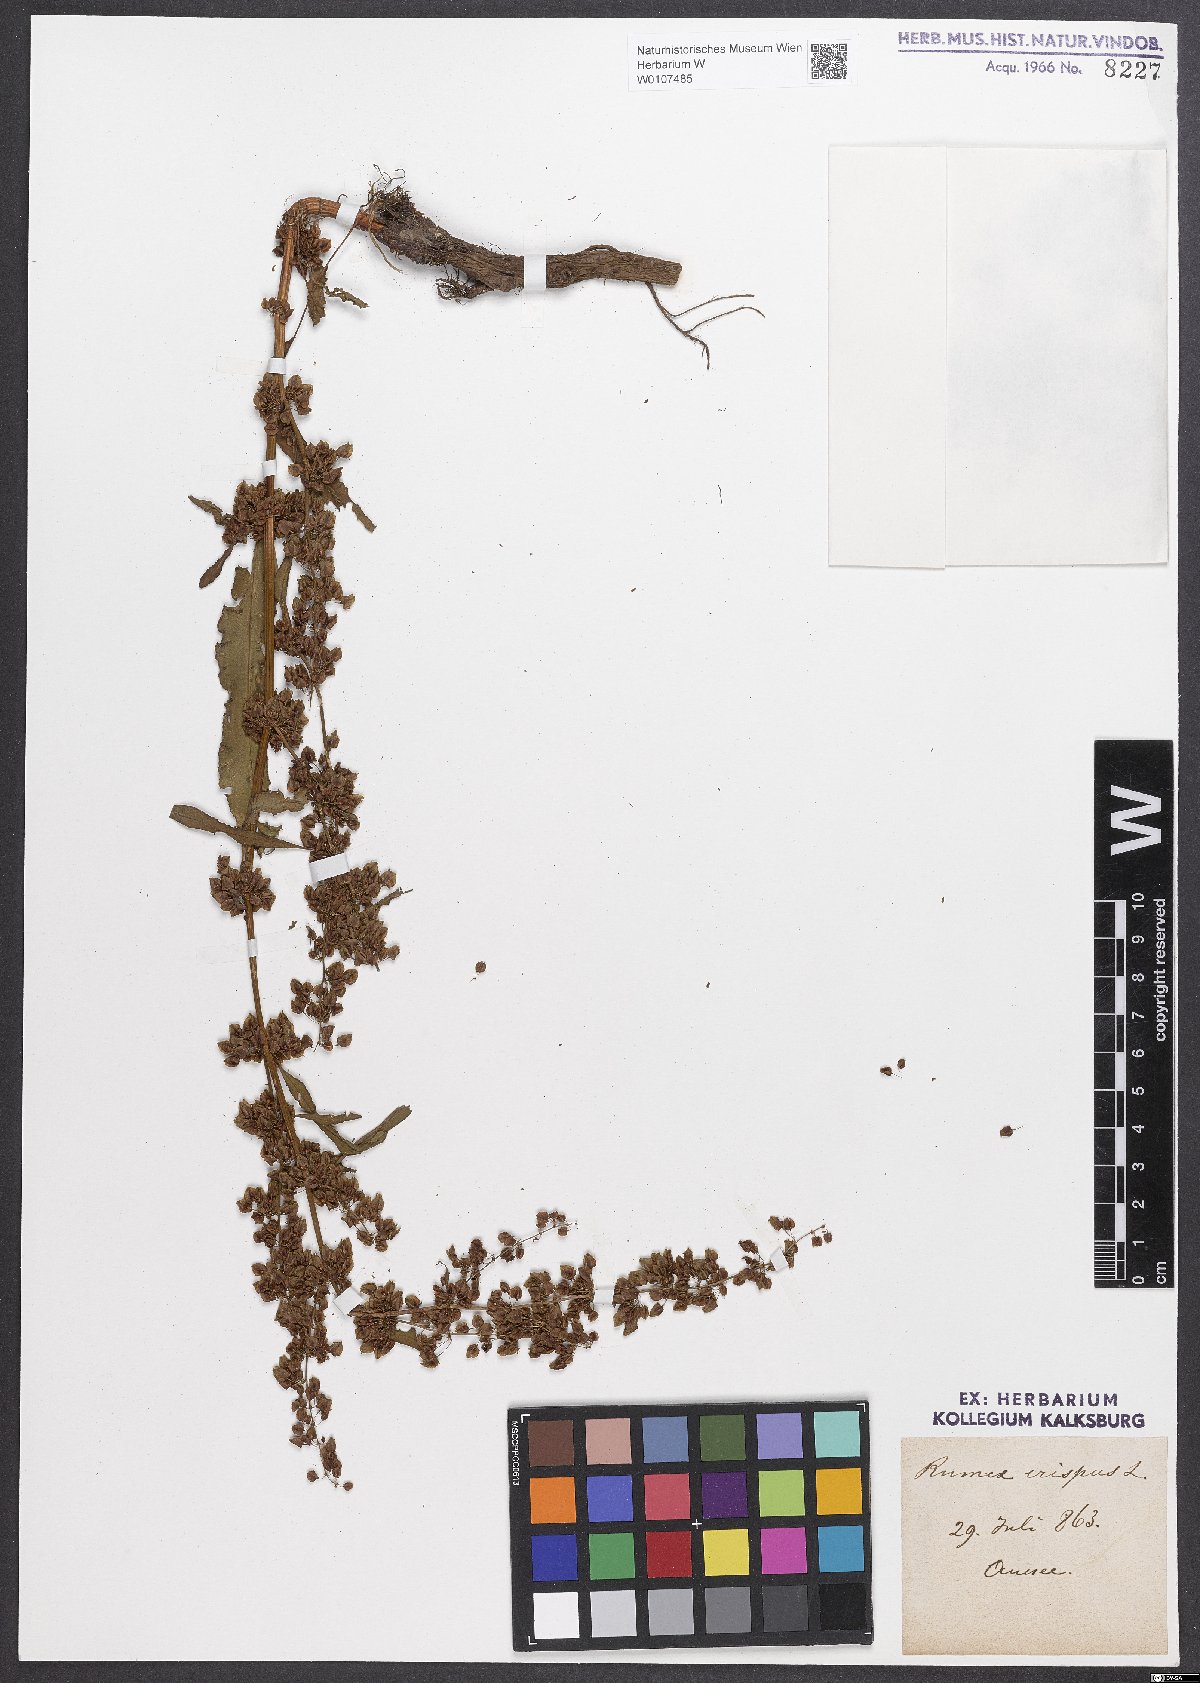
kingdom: Plantae
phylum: Tracheophyta
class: Magnoliopsida
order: Caryophyllales
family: Polygonaceae
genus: Rumex
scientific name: Rumex crispus
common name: Curled dock
